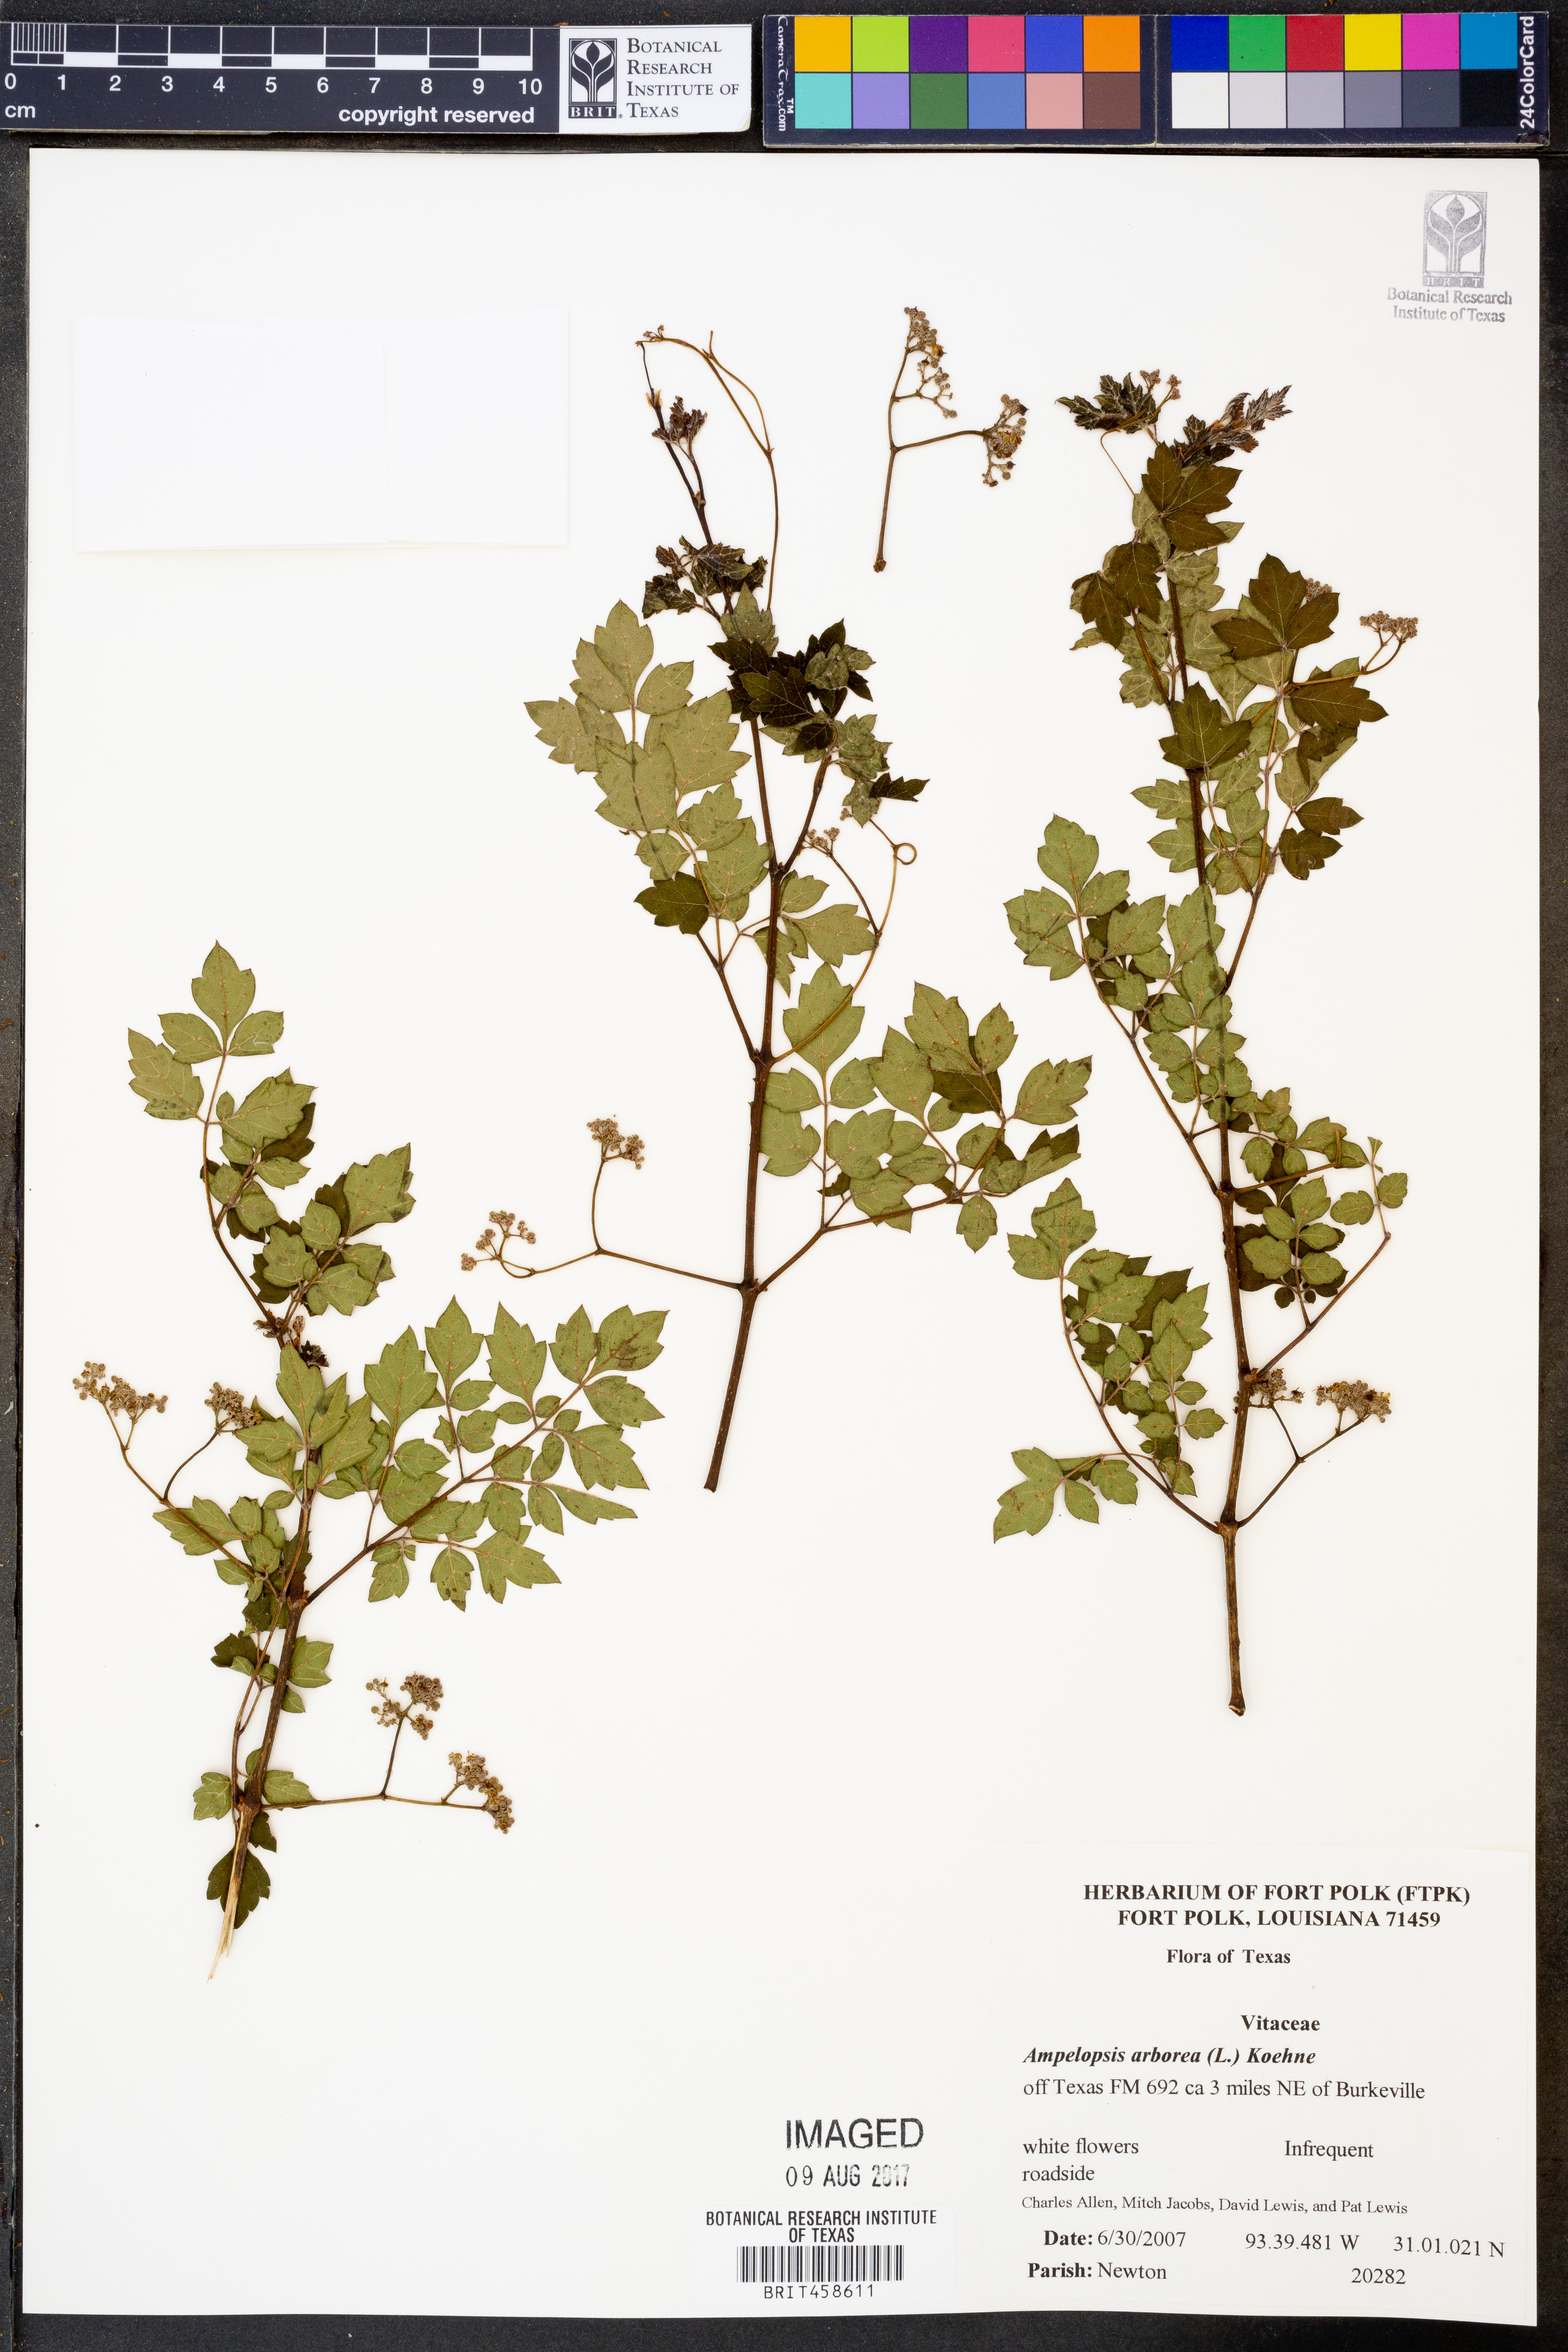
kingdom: Plantae
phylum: Tracheophyta
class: Magnoliopsida
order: Vitales
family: Vitaceae
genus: Nekemias
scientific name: Nekemias arborea
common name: Peppervine
